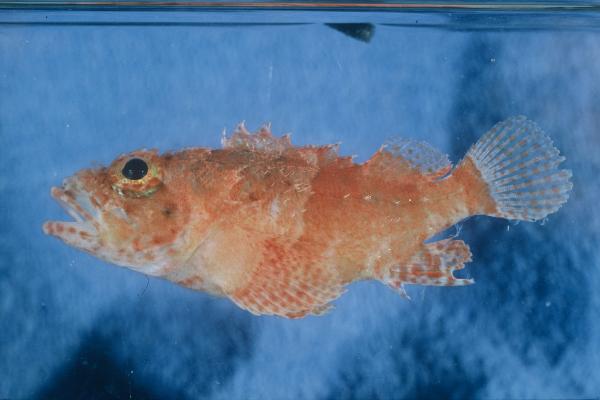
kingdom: Animalia
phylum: Chordata
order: Scorpaeniformes
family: Scorpaenidae
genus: Scorpaenodes
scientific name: Scorpaenodes parvipinnis
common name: Coral scorpionfish
